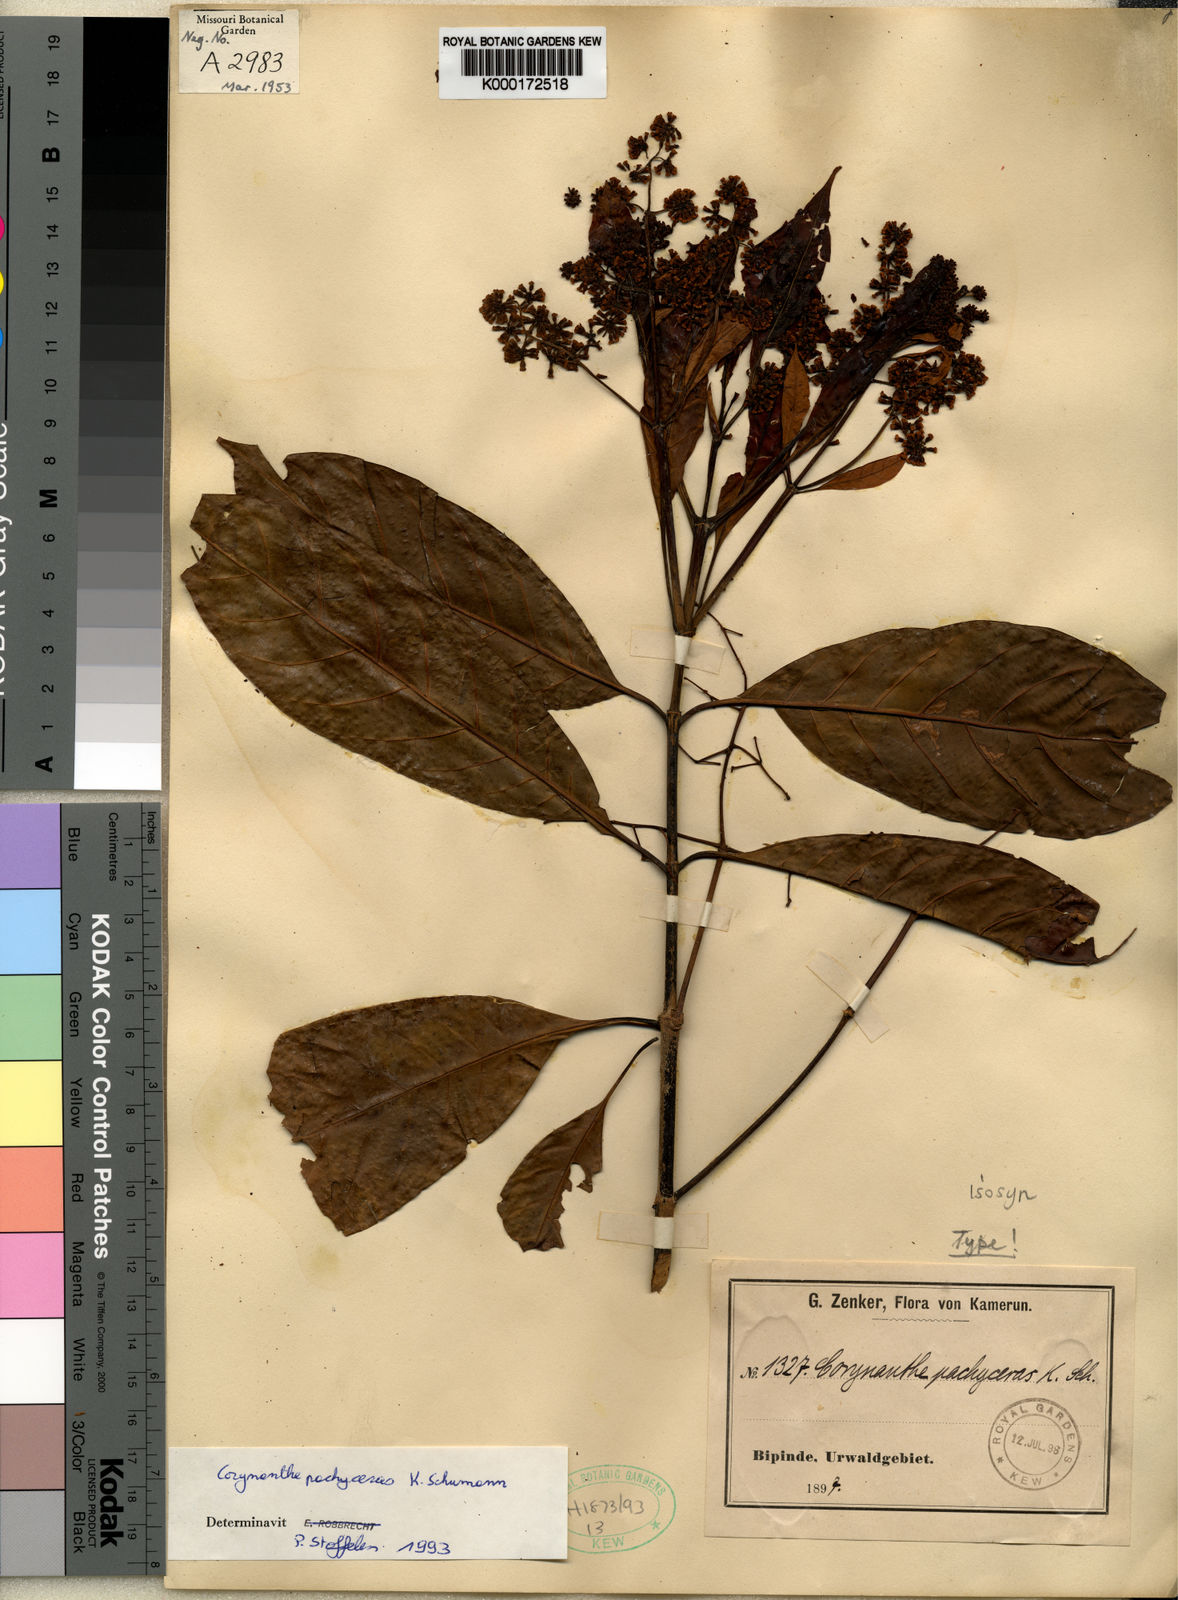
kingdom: Plantae
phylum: Tracheophyta
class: Magnoliopsida
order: Gentianales
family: Rubiaceae
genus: Corynanthe
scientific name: Corynanthe pachyceras
